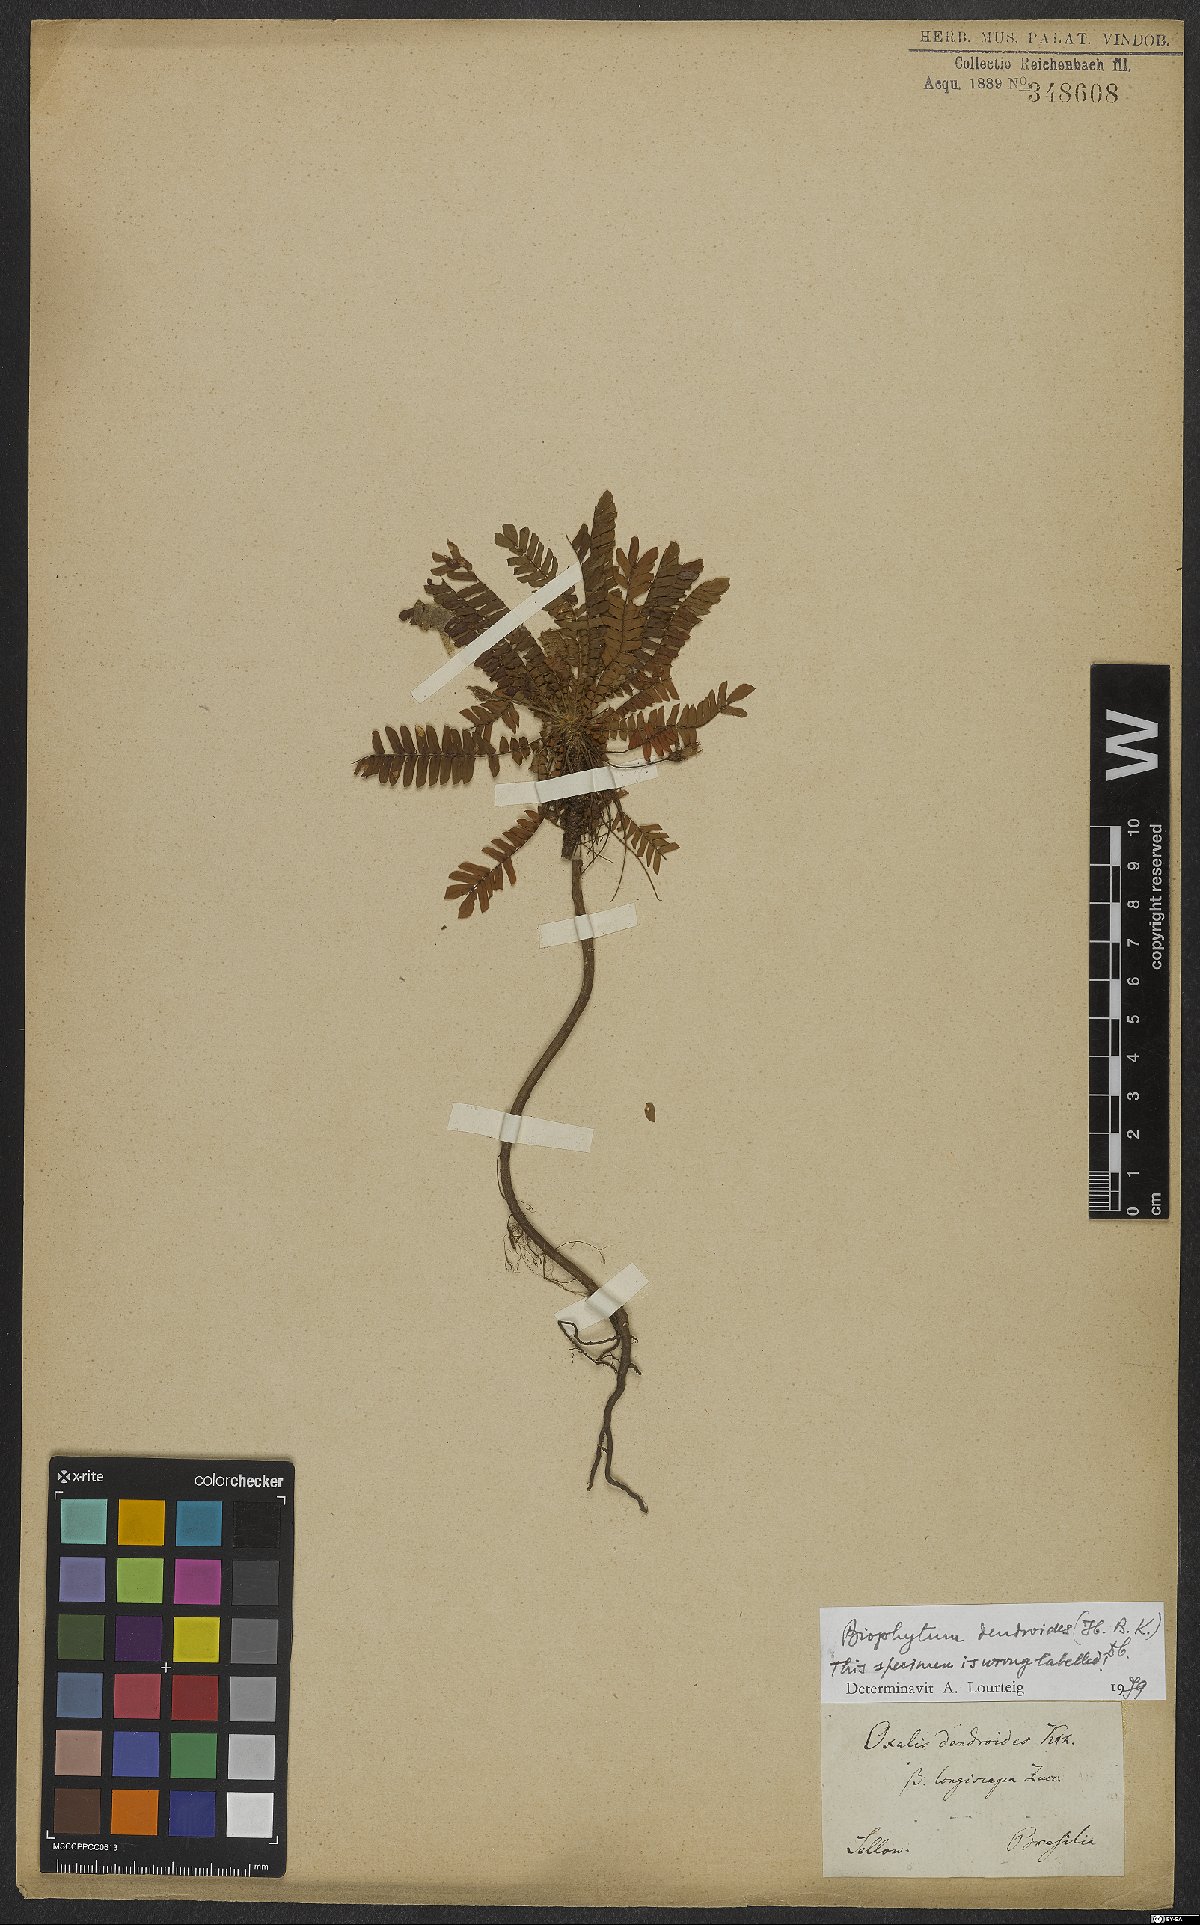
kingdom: Plantae
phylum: Tracheophyta
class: Magnoliopsida
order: Oxalidales
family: Oxalidaceae
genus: Biophytum
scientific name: Biophytum dendroides
